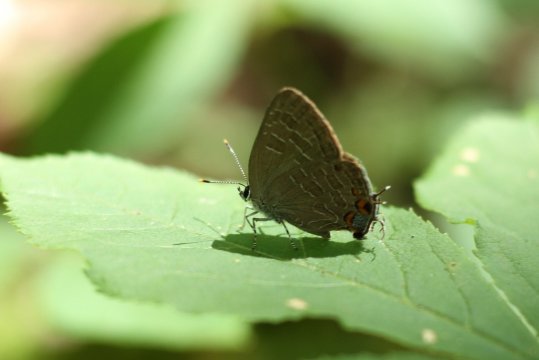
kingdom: Animalia
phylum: Arthropoda
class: Insecta
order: Lepidoptera
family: Lycaenidae
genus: Satyrium
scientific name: Satyrium liparops
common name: Striped Hairstreak
